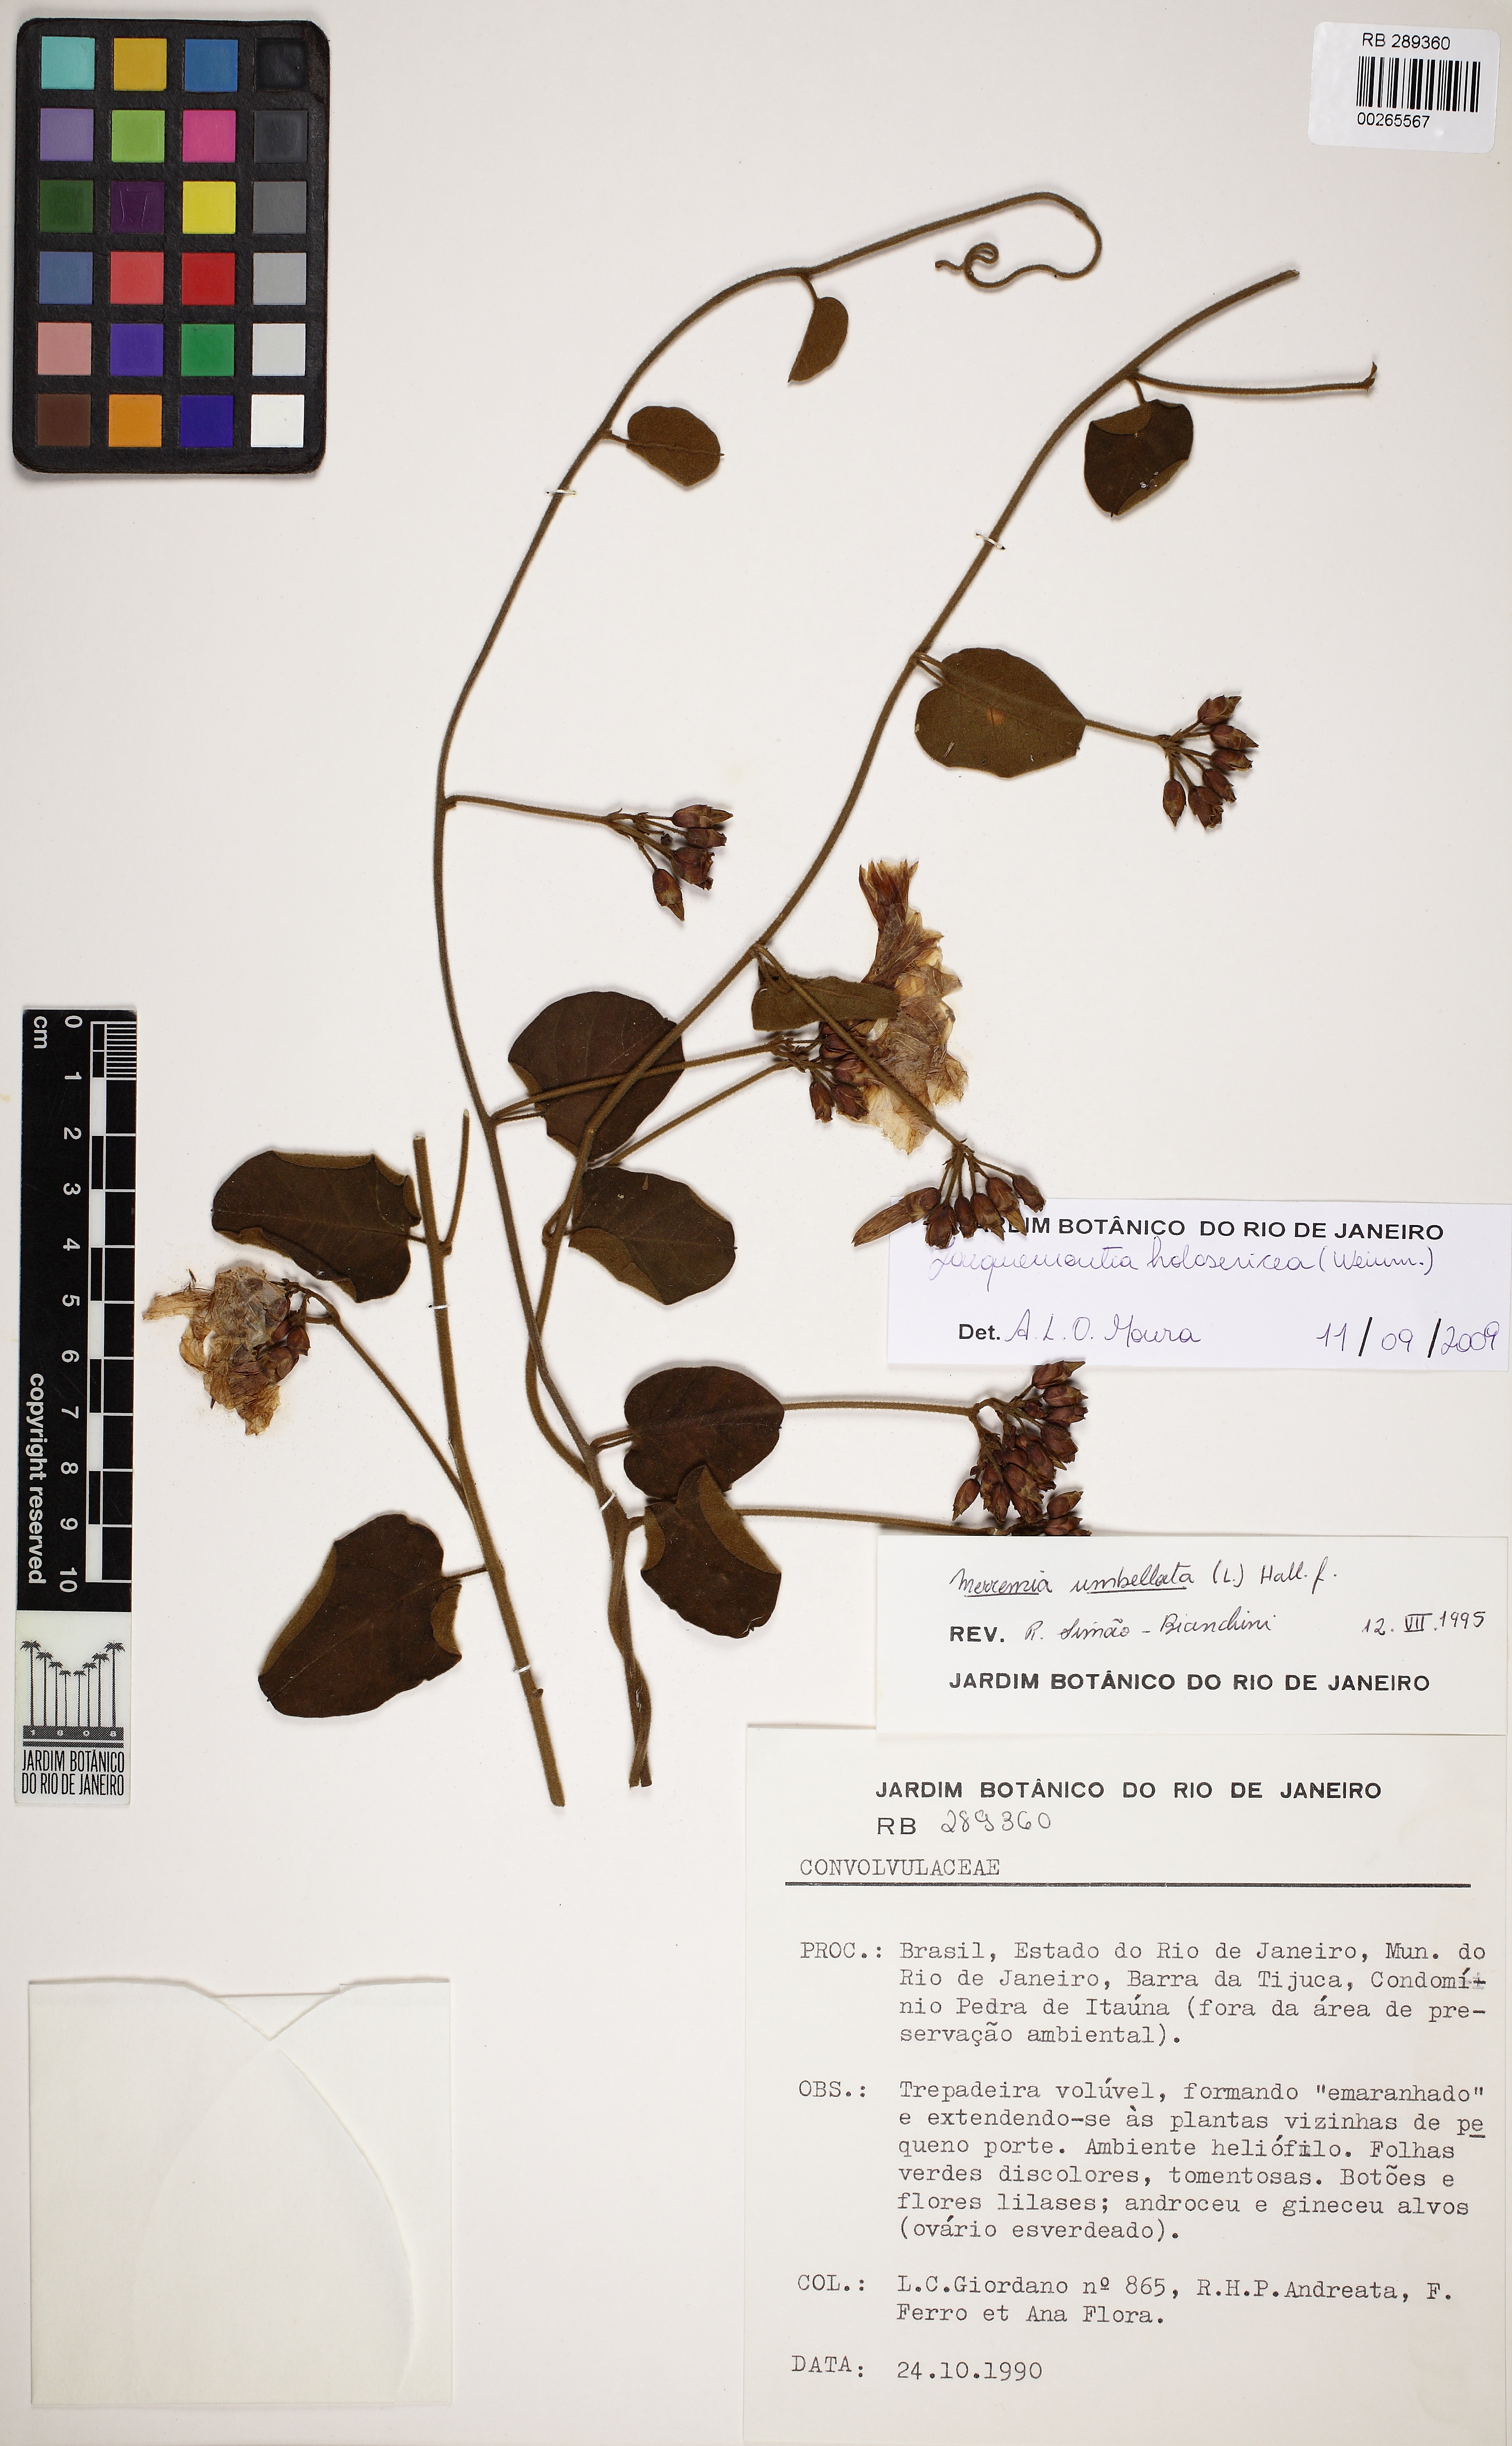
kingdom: Plantae
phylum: Tracheophyta
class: Magnoliopsida
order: Solanales
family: Convolvulaceae
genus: Jacquemontia
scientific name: Jacquemontia holosericea
